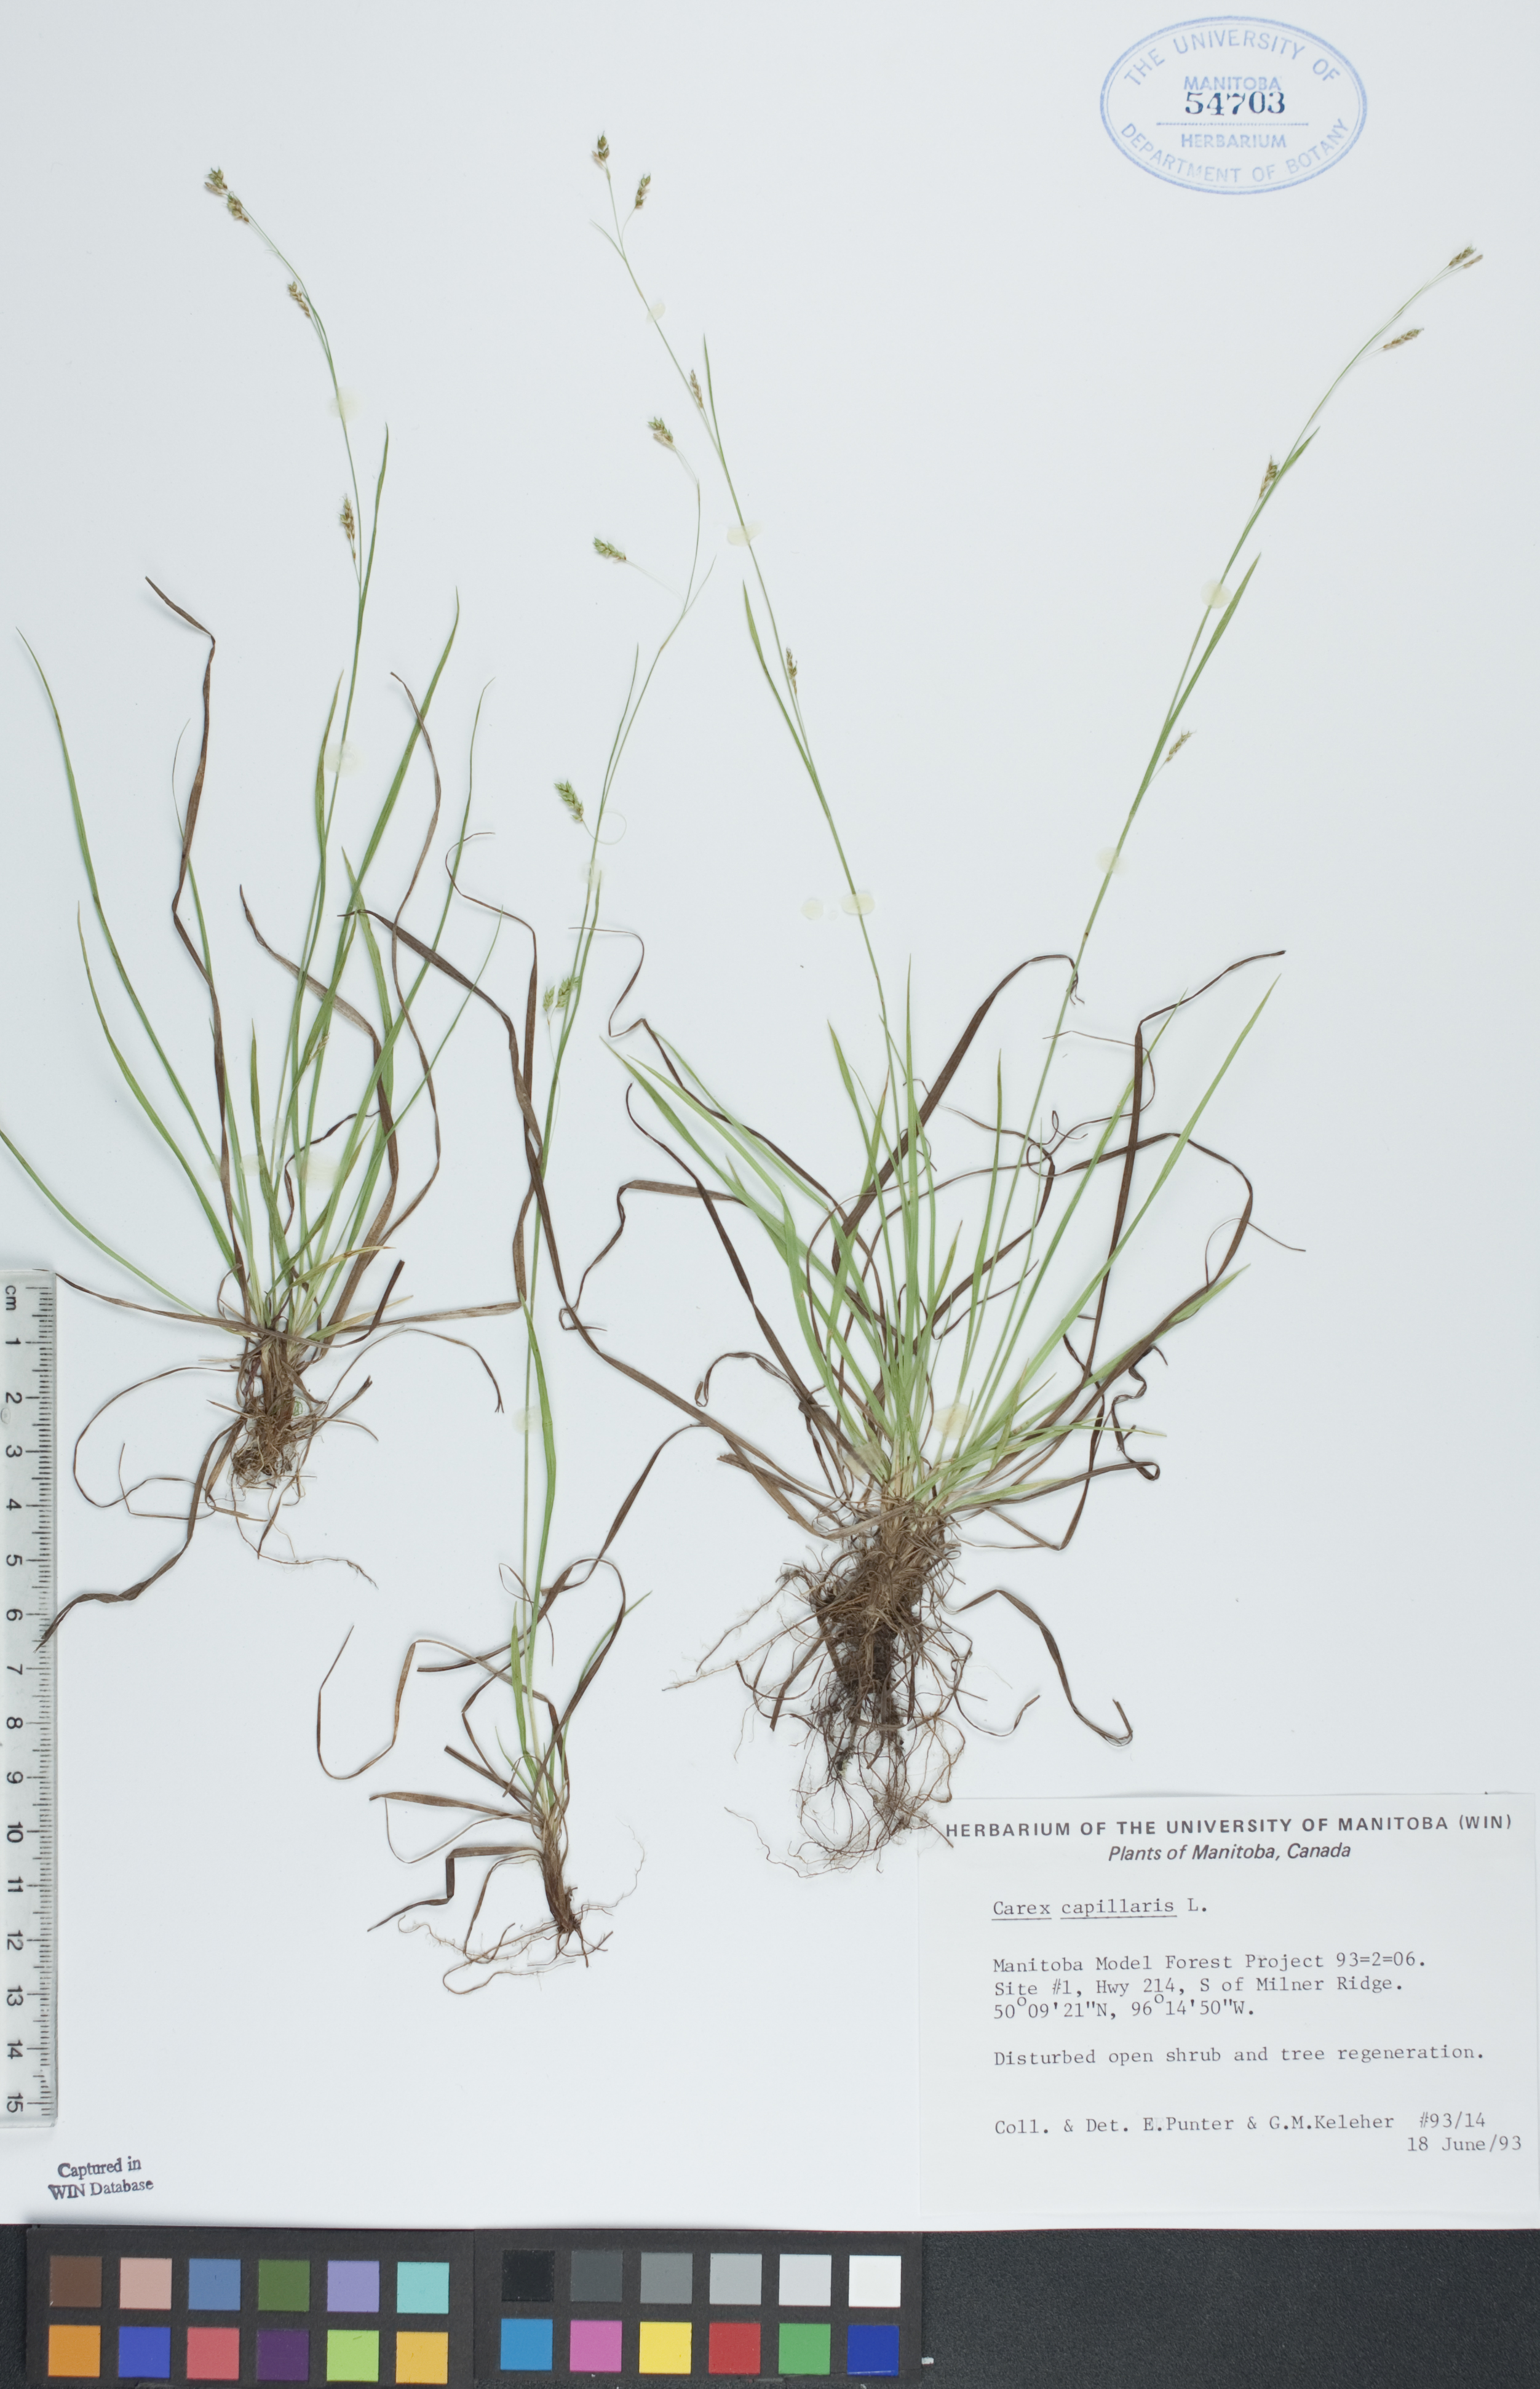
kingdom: Plantae
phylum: Tracheophyta
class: Liliopsida
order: Poales
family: Cyperaceae
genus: Carex
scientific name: Carex capillaris
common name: Hair sedge
